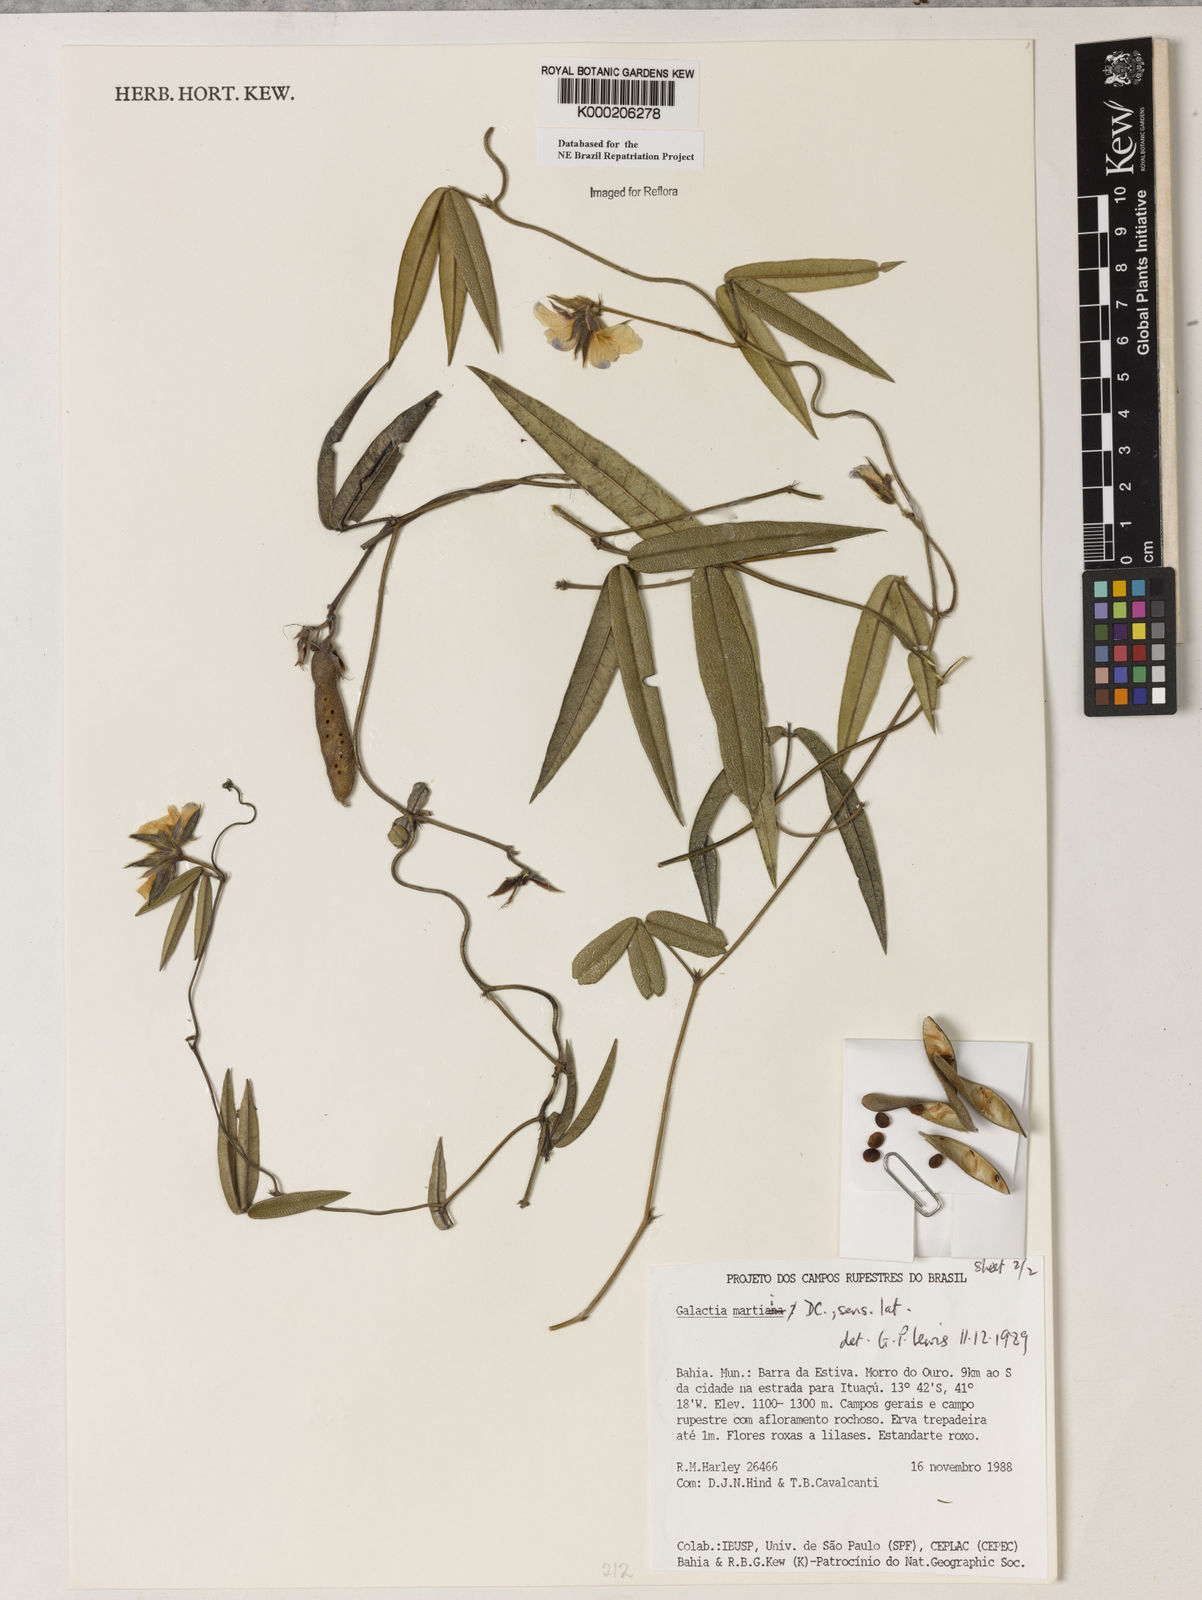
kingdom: Plantae
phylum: Tracheophyta
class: Magnoliopsida
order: Fabales
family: Fabaceae
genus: Betencourtia
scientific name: Betencourtia martii
